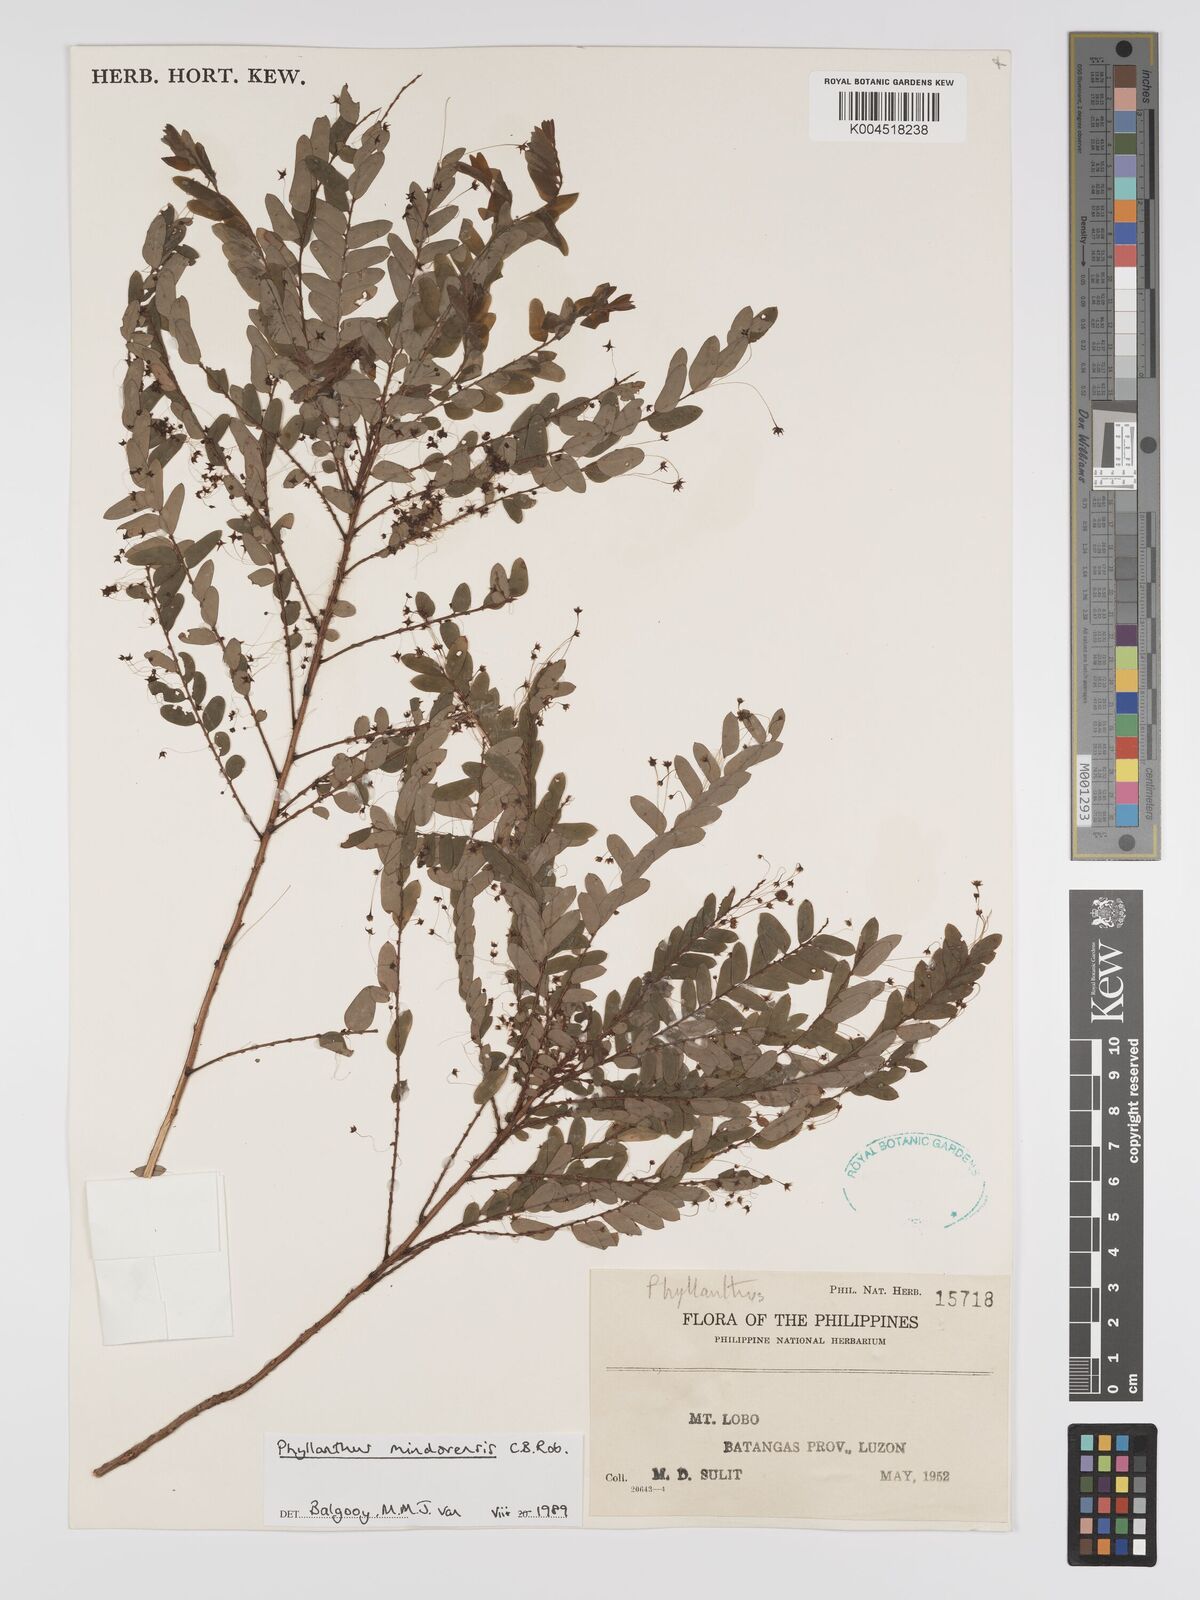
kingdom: Plantae
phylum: Tracheophyta
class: Magnoliopsida
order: Malpighiales
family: Phyllanthaceae
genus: Phyllanthus
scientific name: Phyllanthus celebicus
